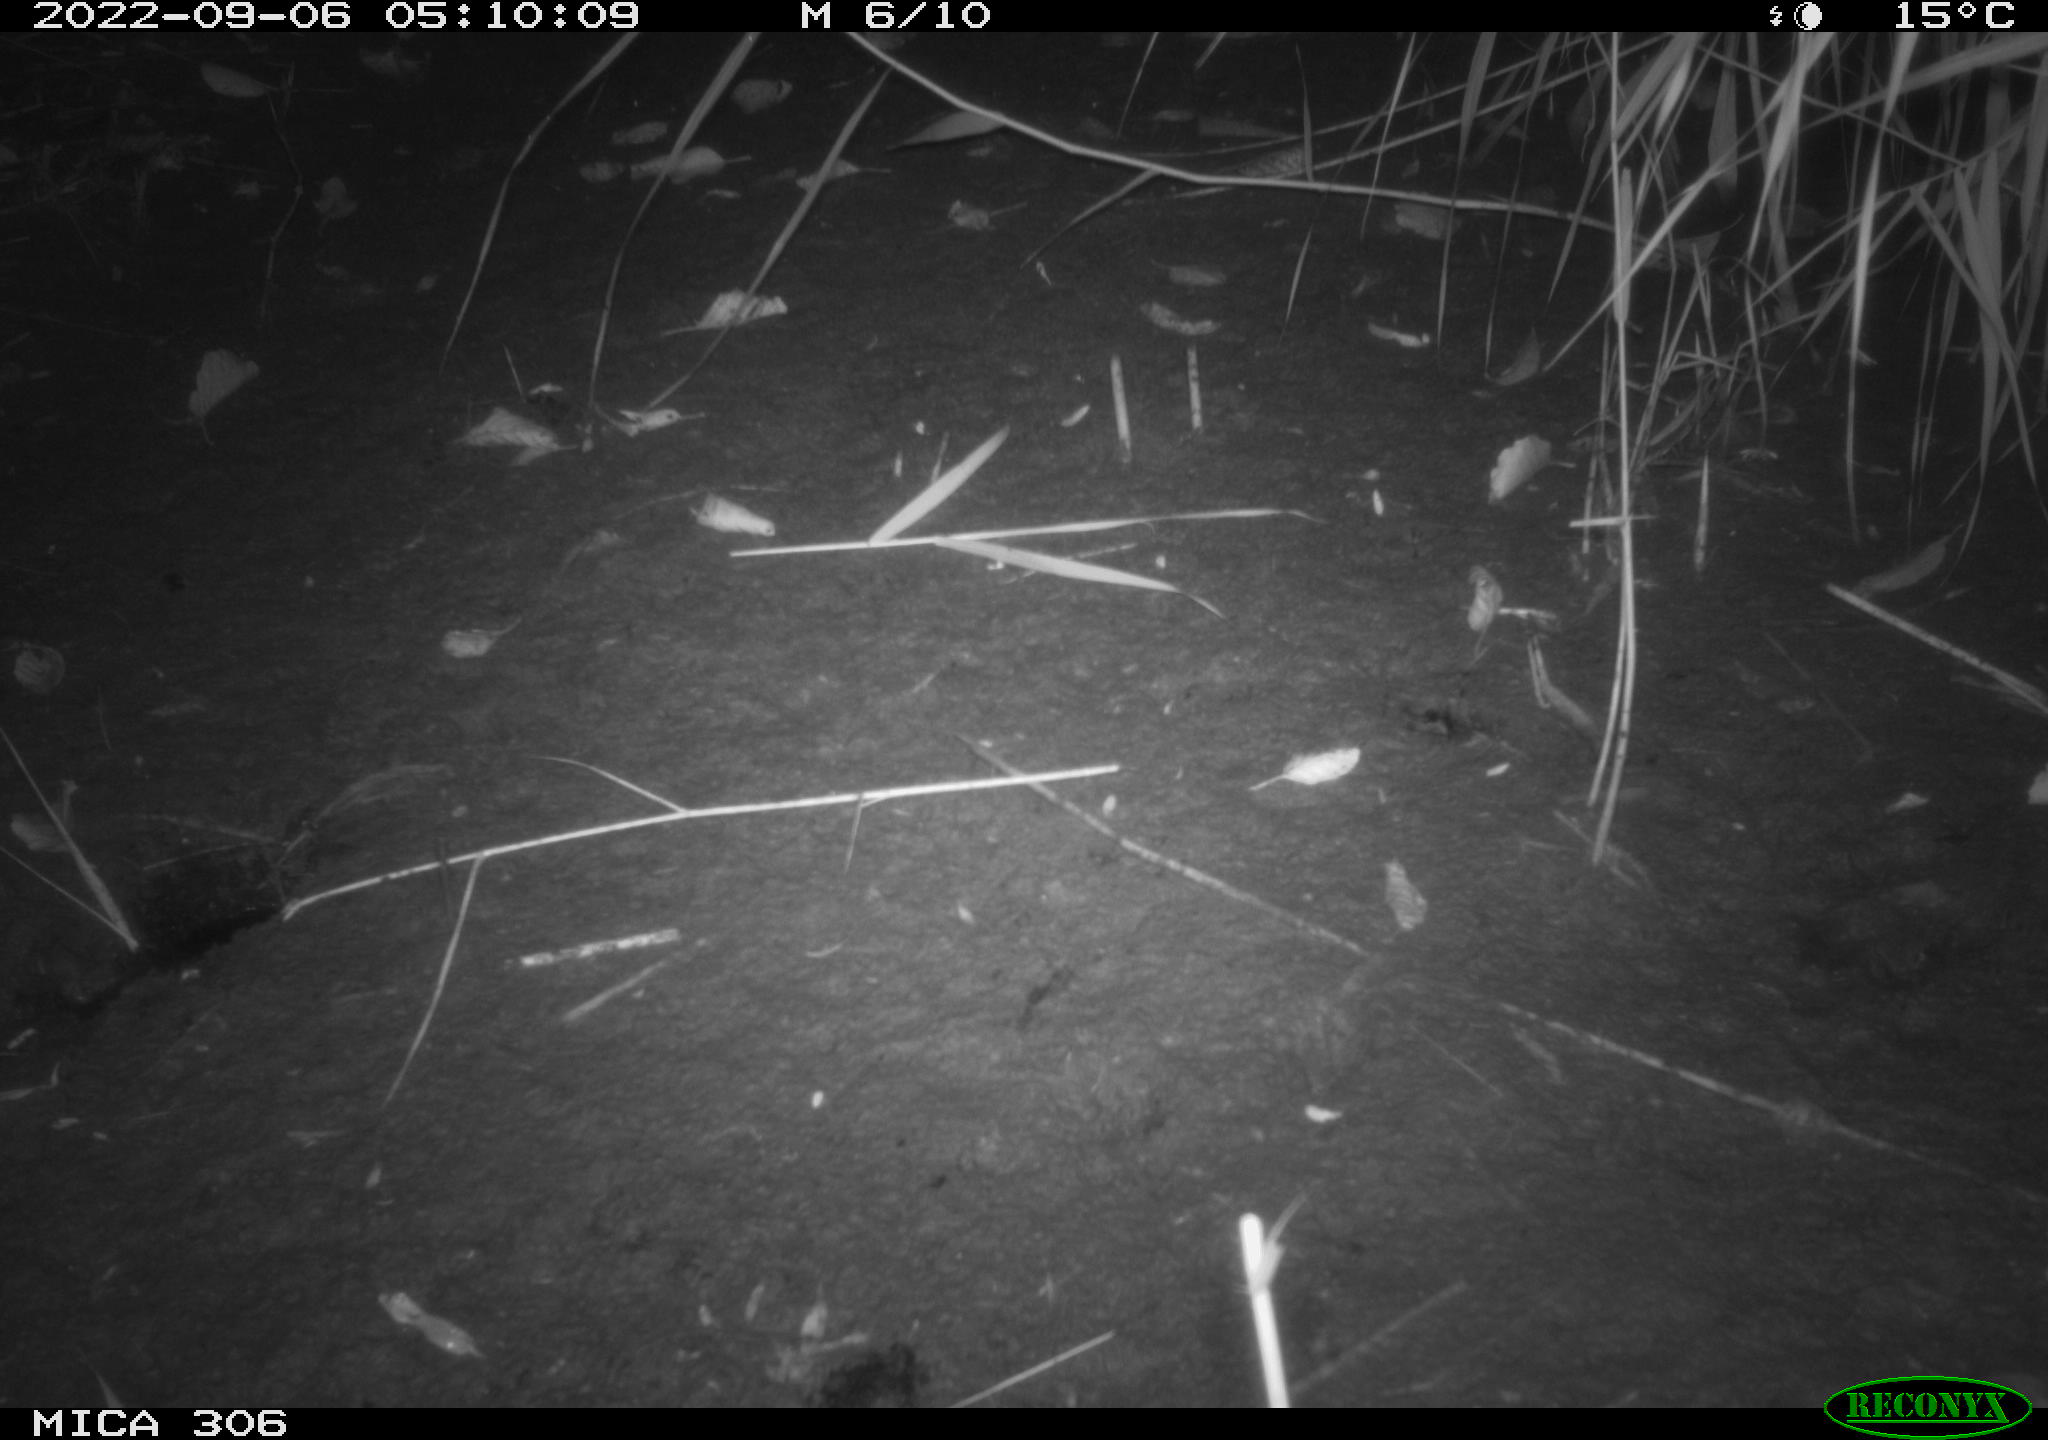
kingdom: Animalia
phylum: Chordata
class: Mammalia
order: Rodentia
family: Muridae
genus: Rattus
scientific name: Rattus norvegicus
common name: Brown rat
